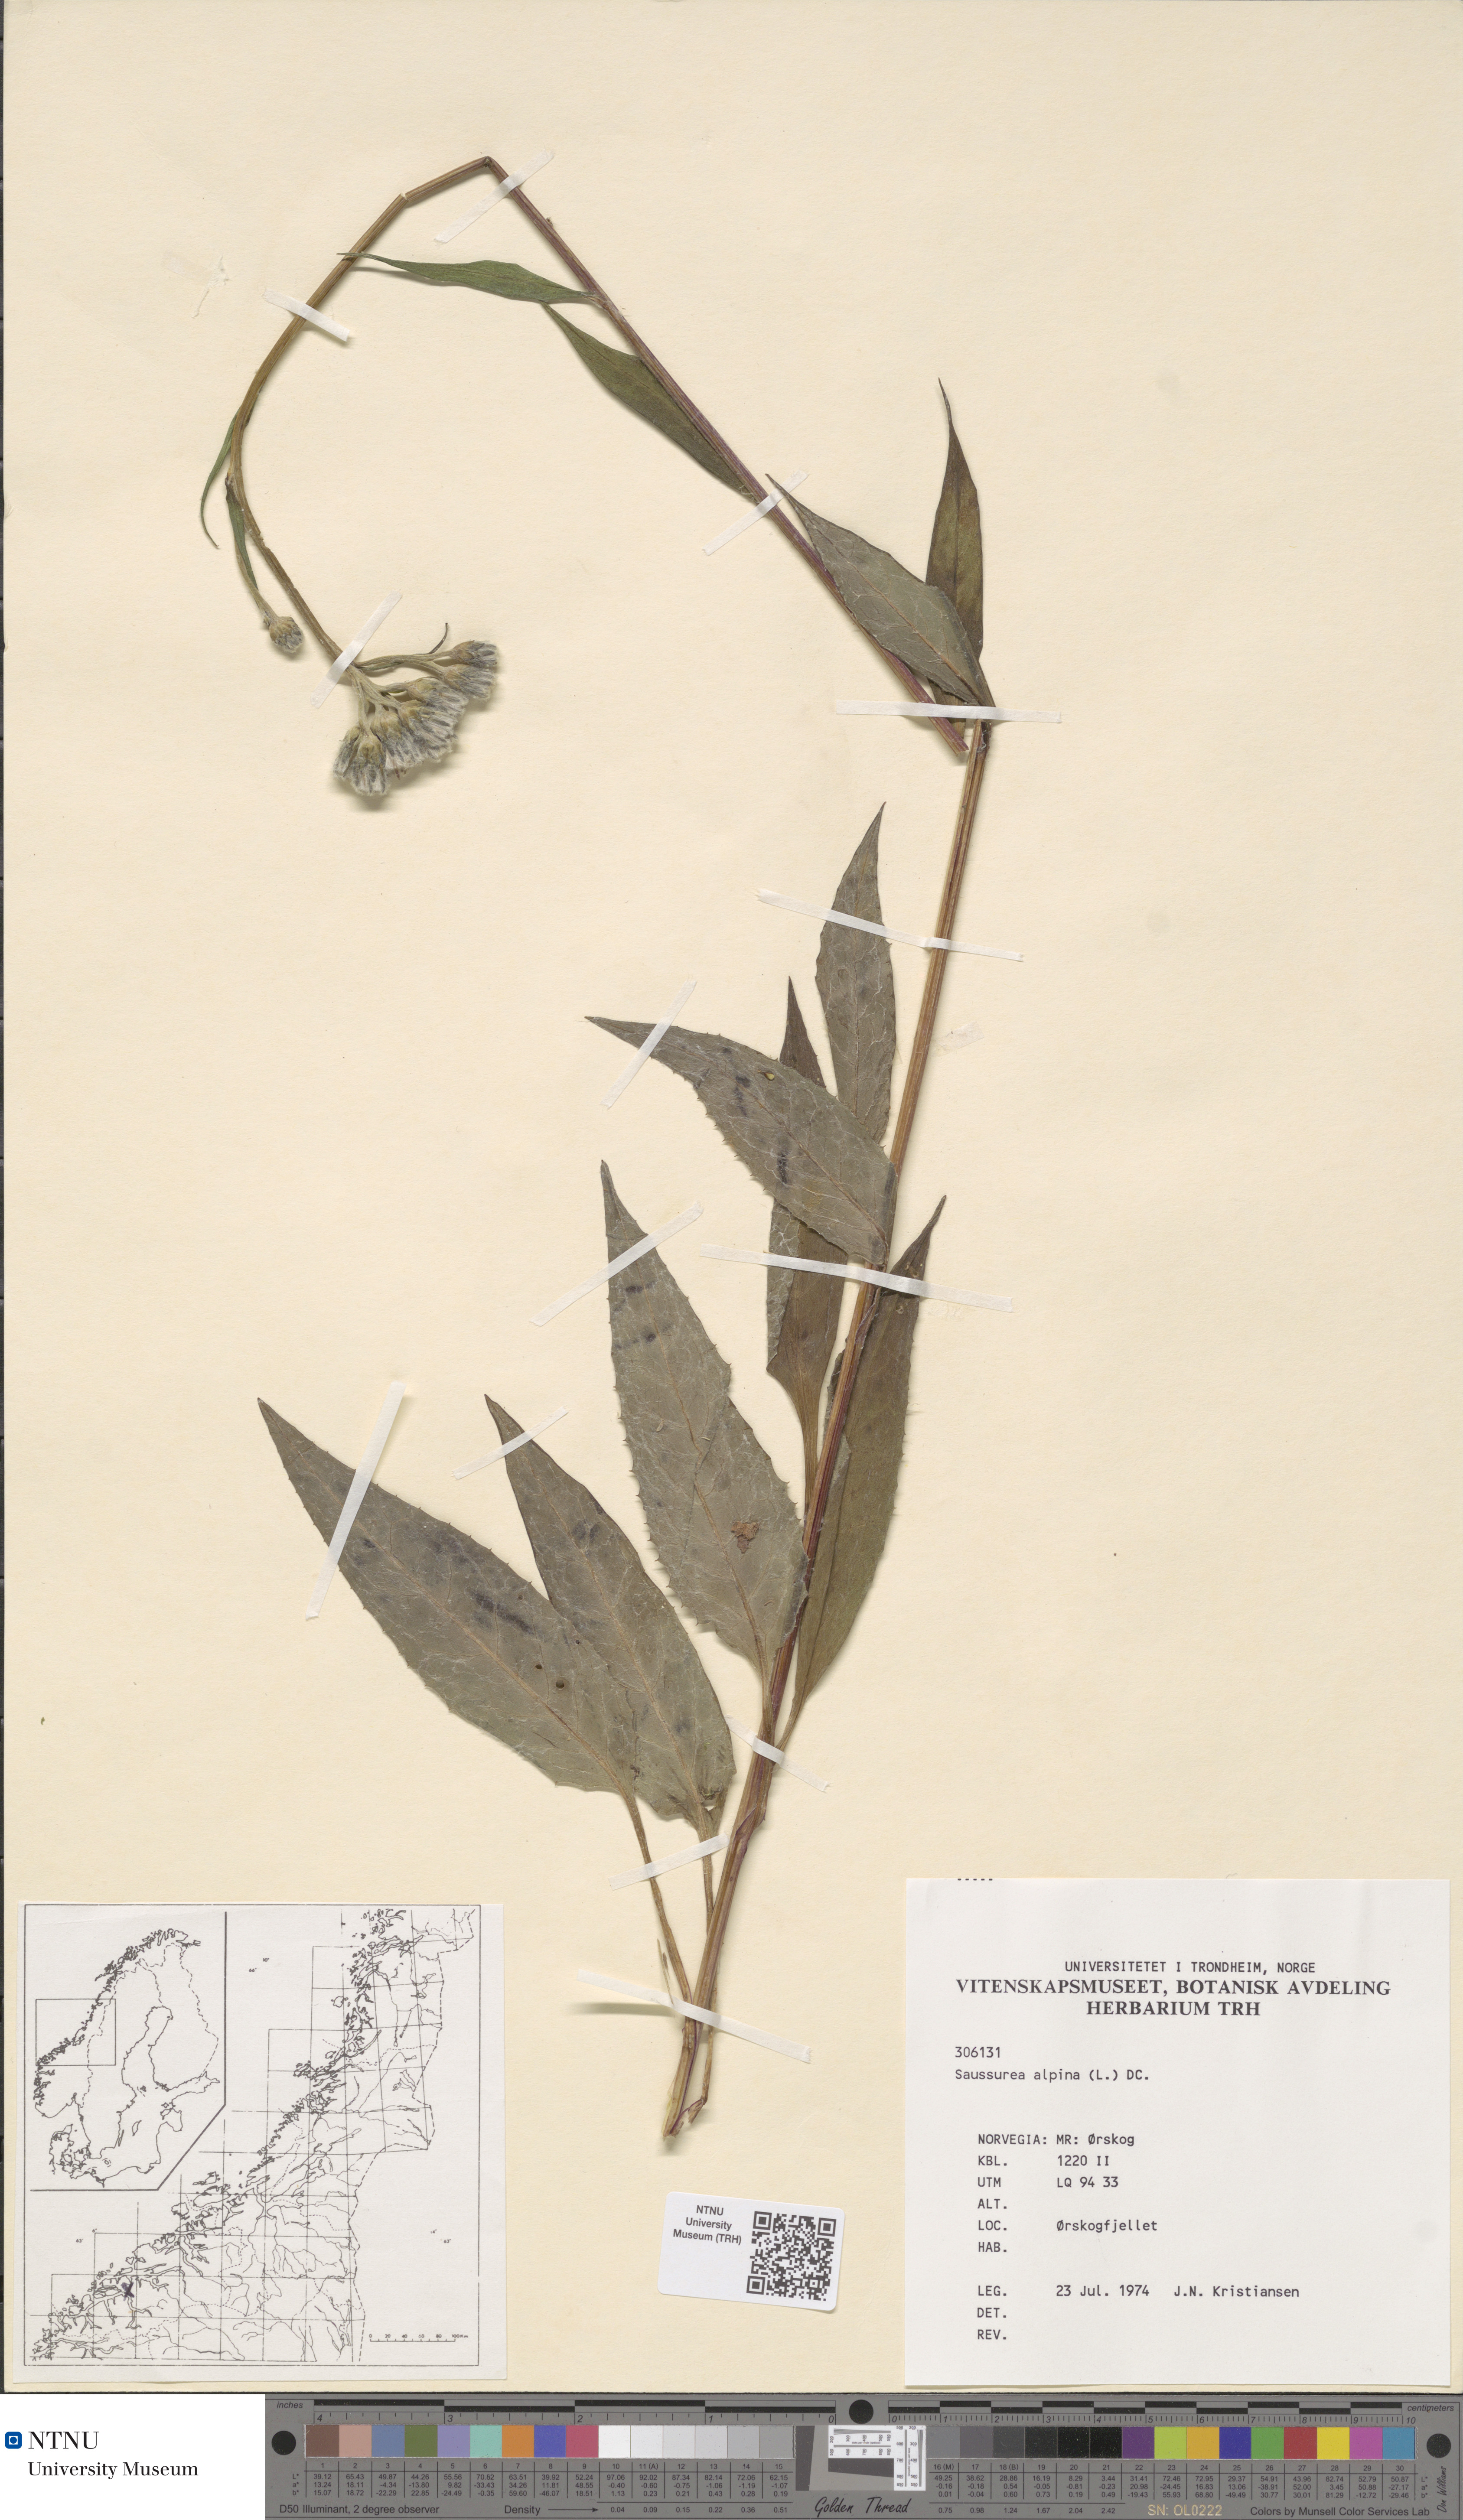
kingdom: Plantae
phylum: Tracheophyta
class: Magnoliopsida
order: Asterales
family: Asteraceae
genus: Saussurea
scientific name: Saussurea alpina
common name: Alpine saw-wort
